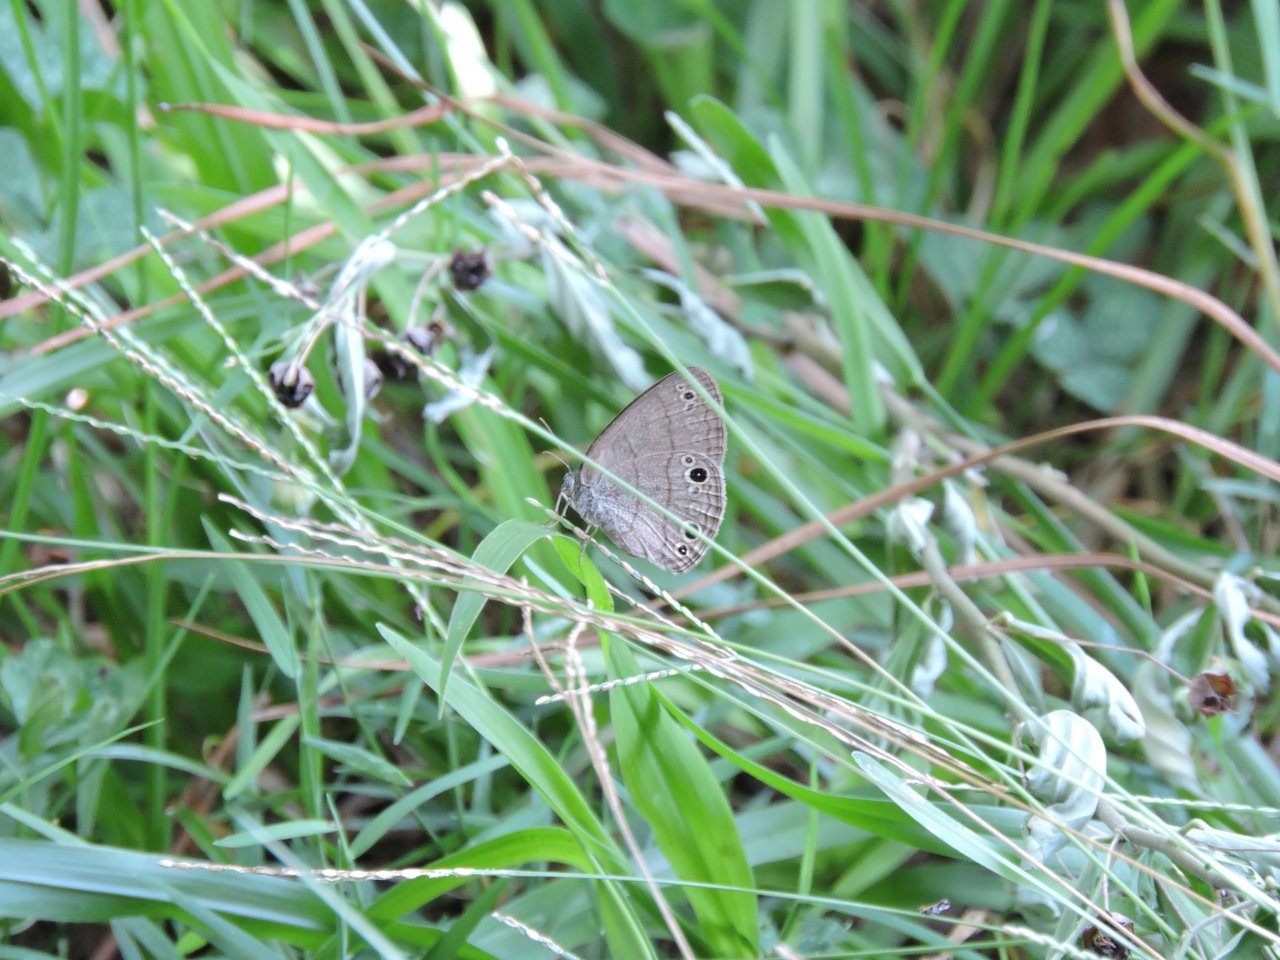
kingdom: Animalia
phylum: Arthropoda
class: Insecta
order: Lepidoptera
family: Nymphalidae
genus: Hermeuptychia
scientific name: Hermeuptychia hermes
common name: Carolina Satyr
